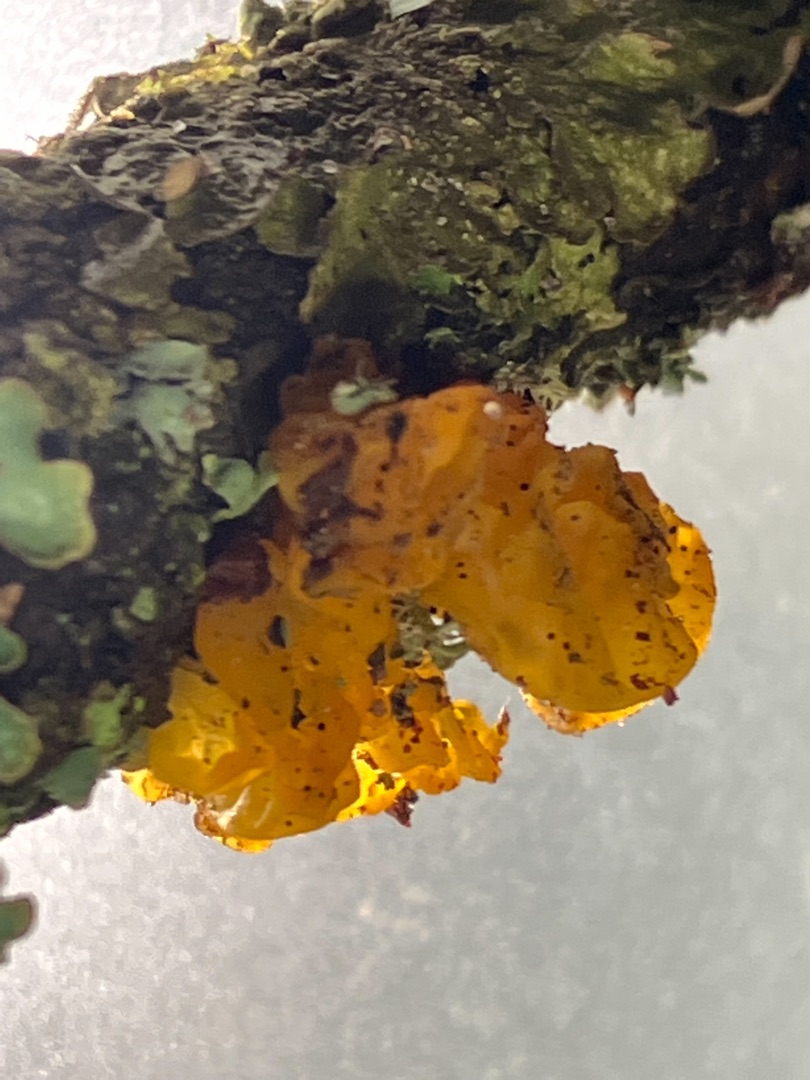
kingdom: Fungi
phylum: Basidiomycota
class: Tremellomycetes
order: Tremellales
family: Tremellaceae
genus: Tremella
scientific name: Tremella mesenterica
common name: Gul bævresvamp
